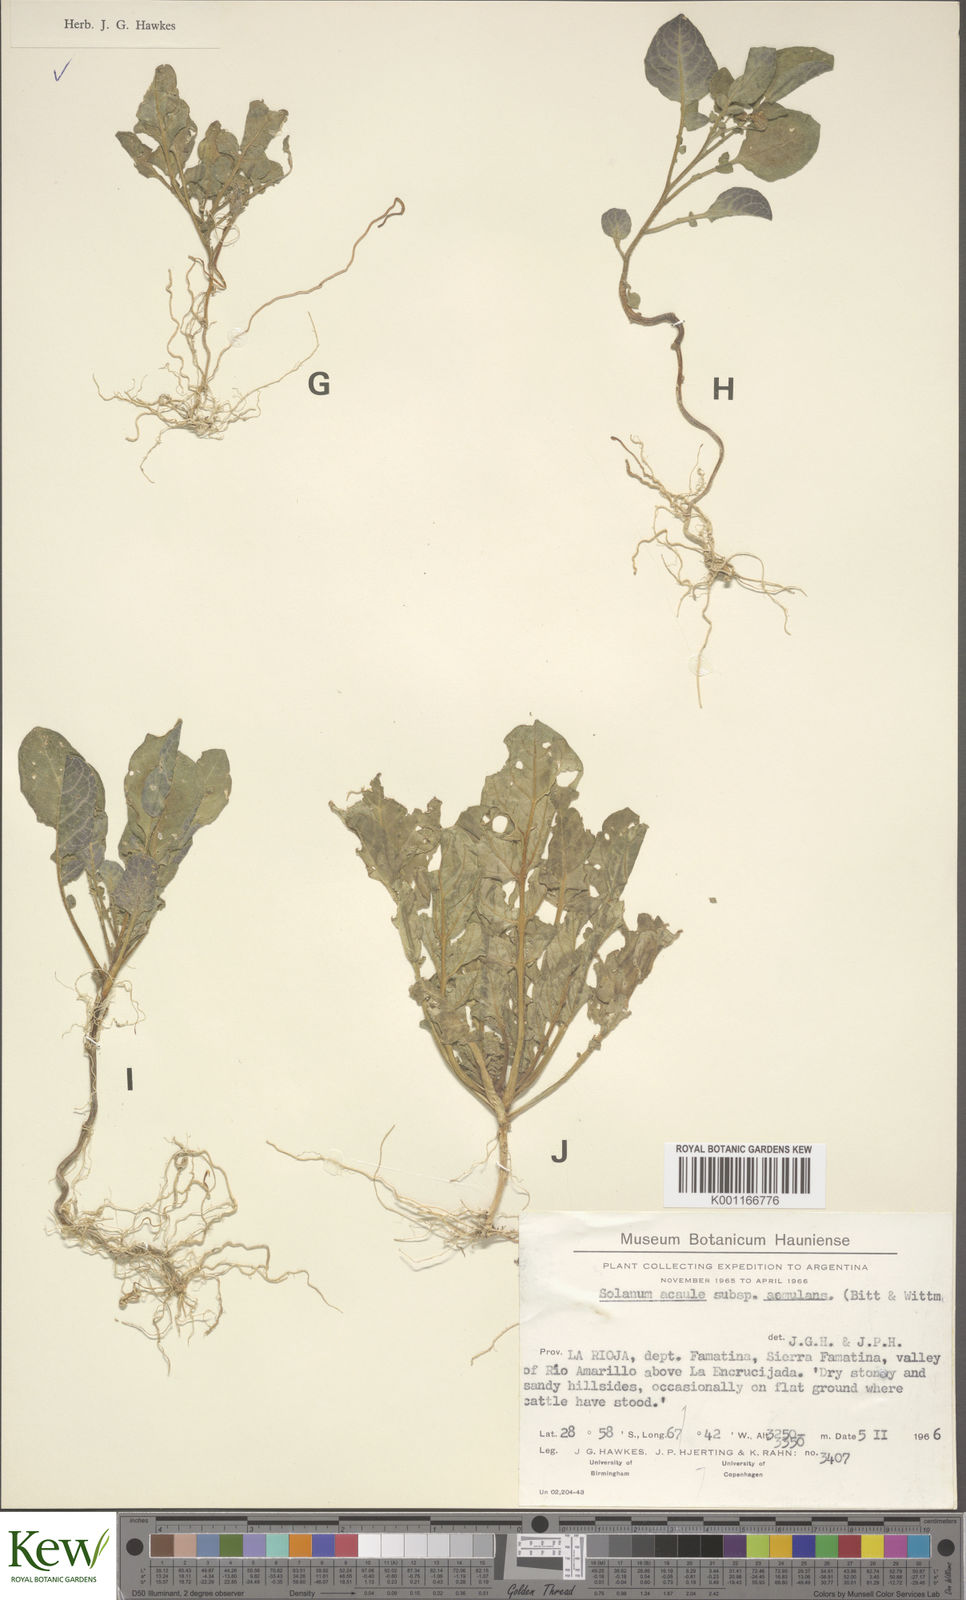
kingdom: Plantae
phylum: Tracheophyta
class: Magnoliopsida
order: Solanales
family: Solanaceae
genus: Solanum
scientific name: Solanum aemulans
